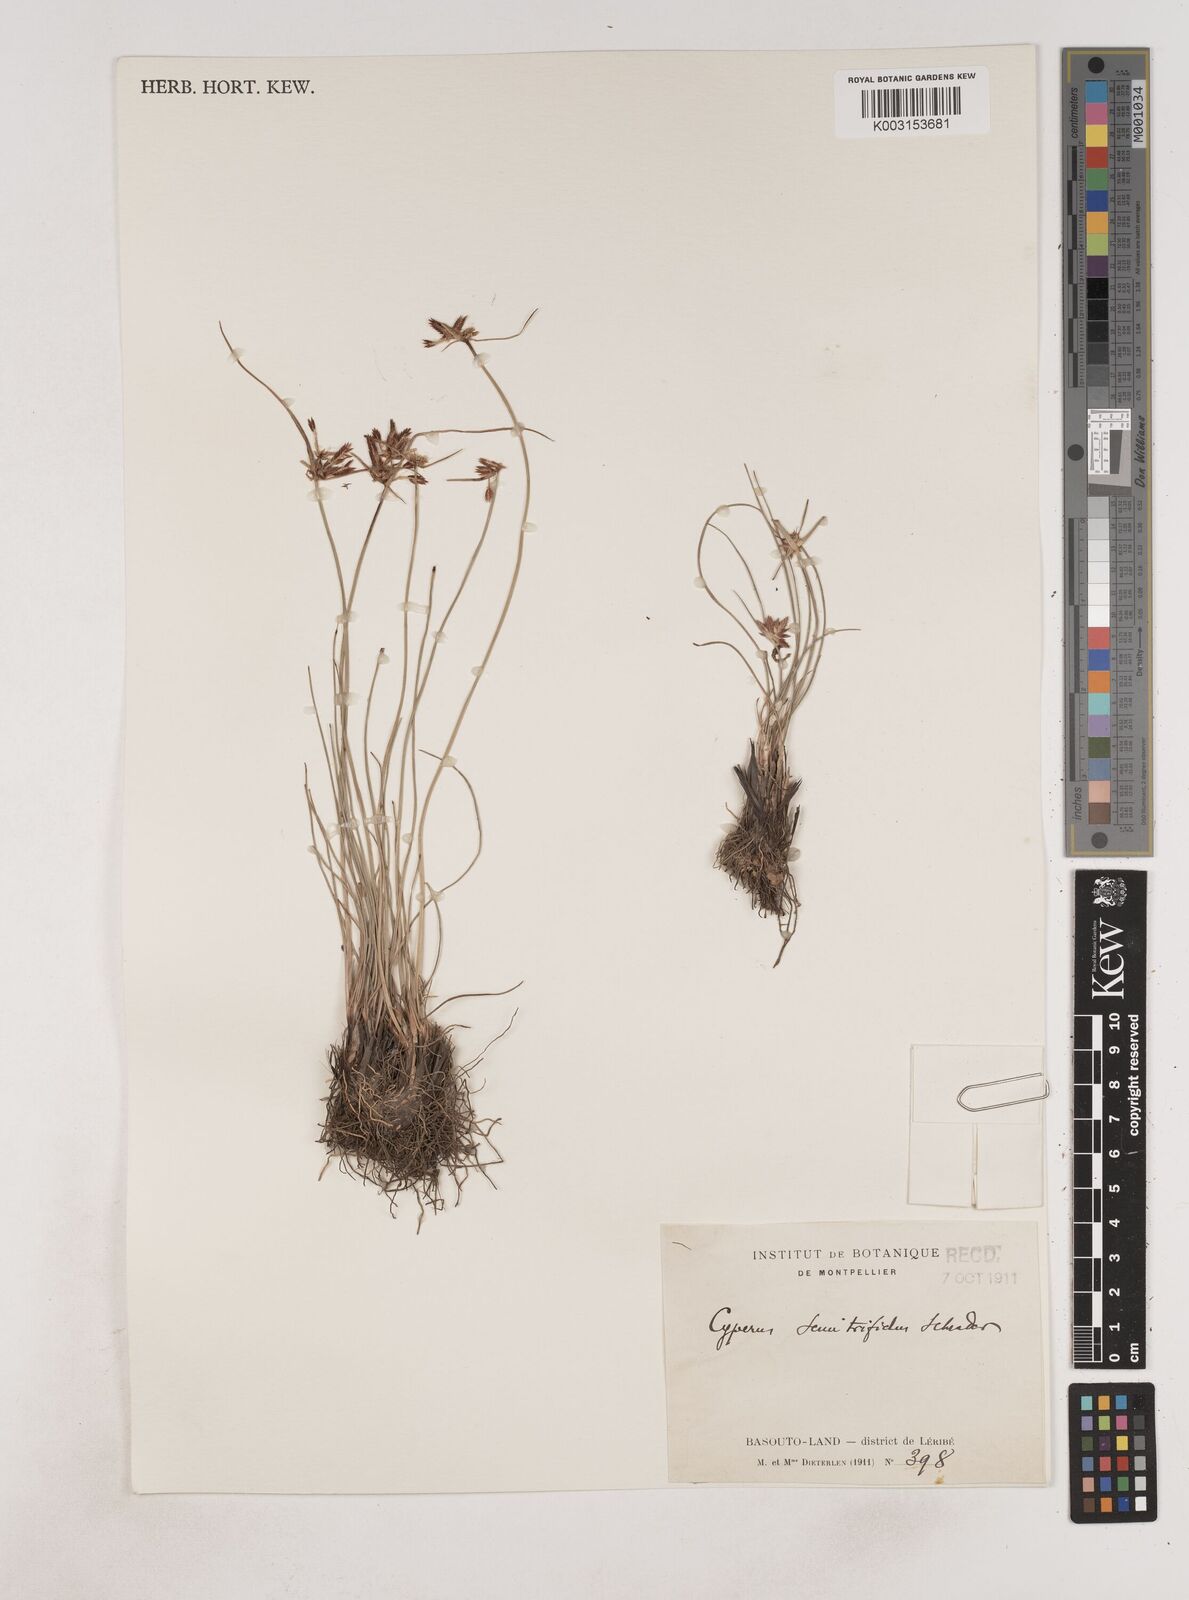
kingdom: Plantae
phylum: Tracheophyta
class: Liliopsida
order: Poales
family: Cyperaceae
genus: Cyperus
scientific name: Cyperus semitrifidus
